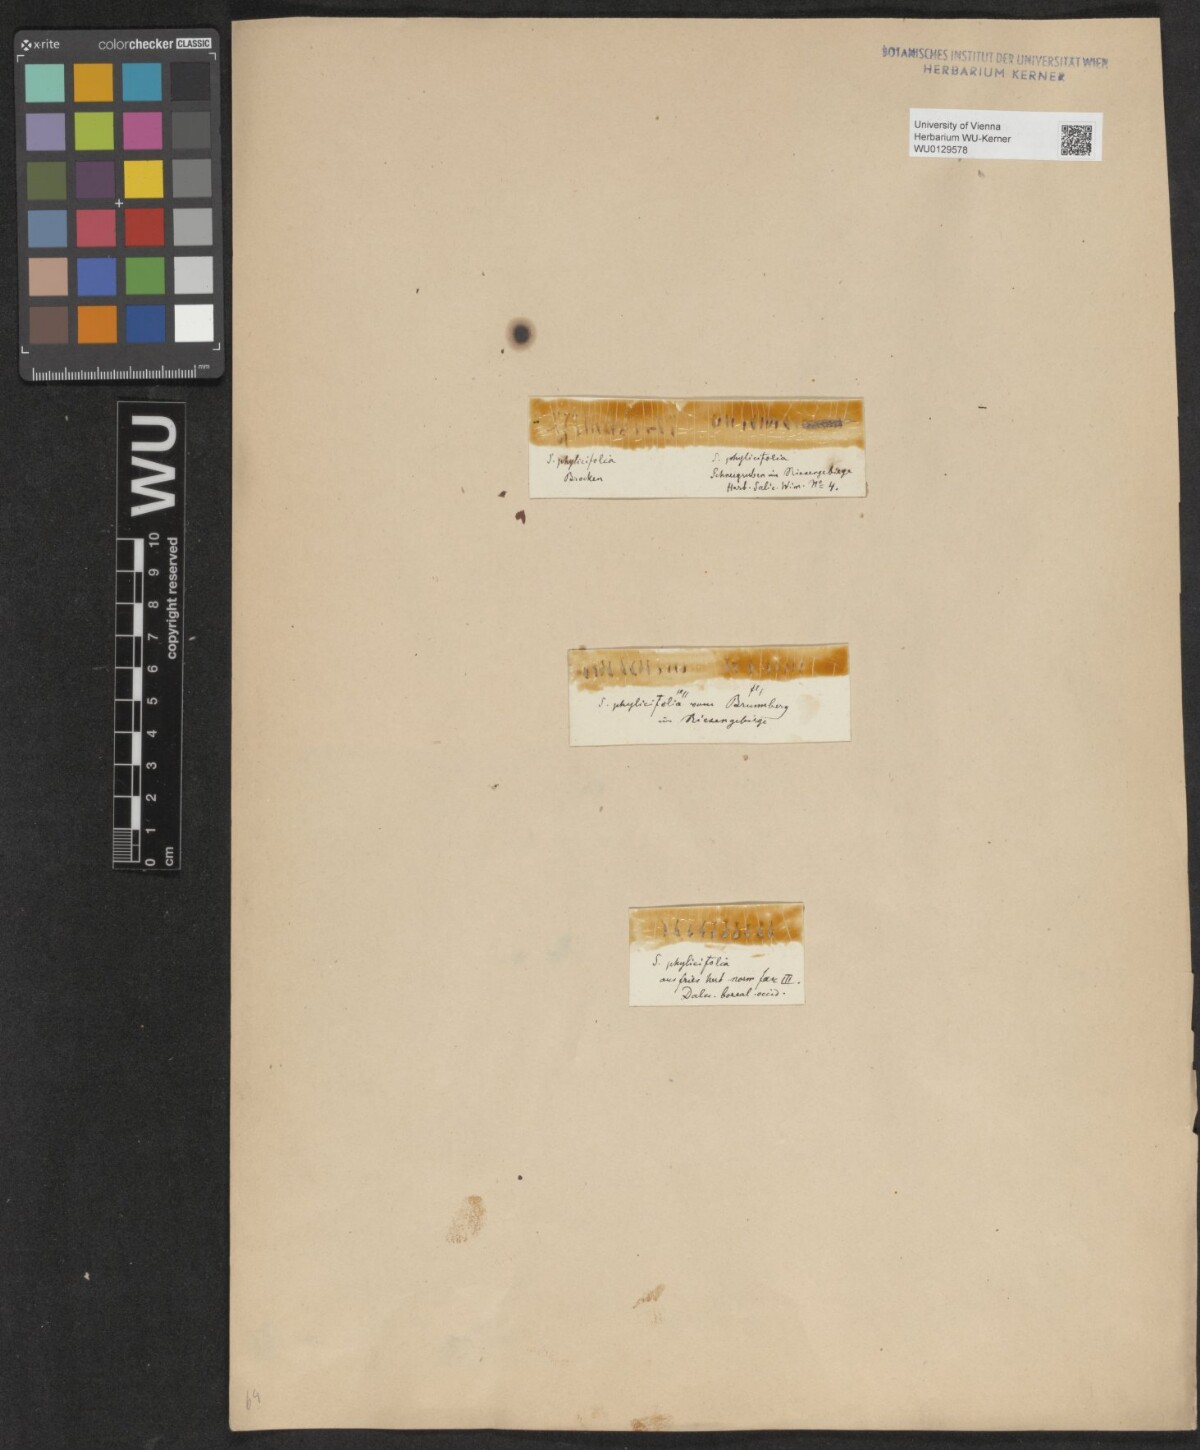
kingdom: Plantae
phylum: Tracheophyta
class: Magnoliopsida
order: Malpighiales
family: Salicaceae
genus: Salix
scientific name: Salix bicolor
